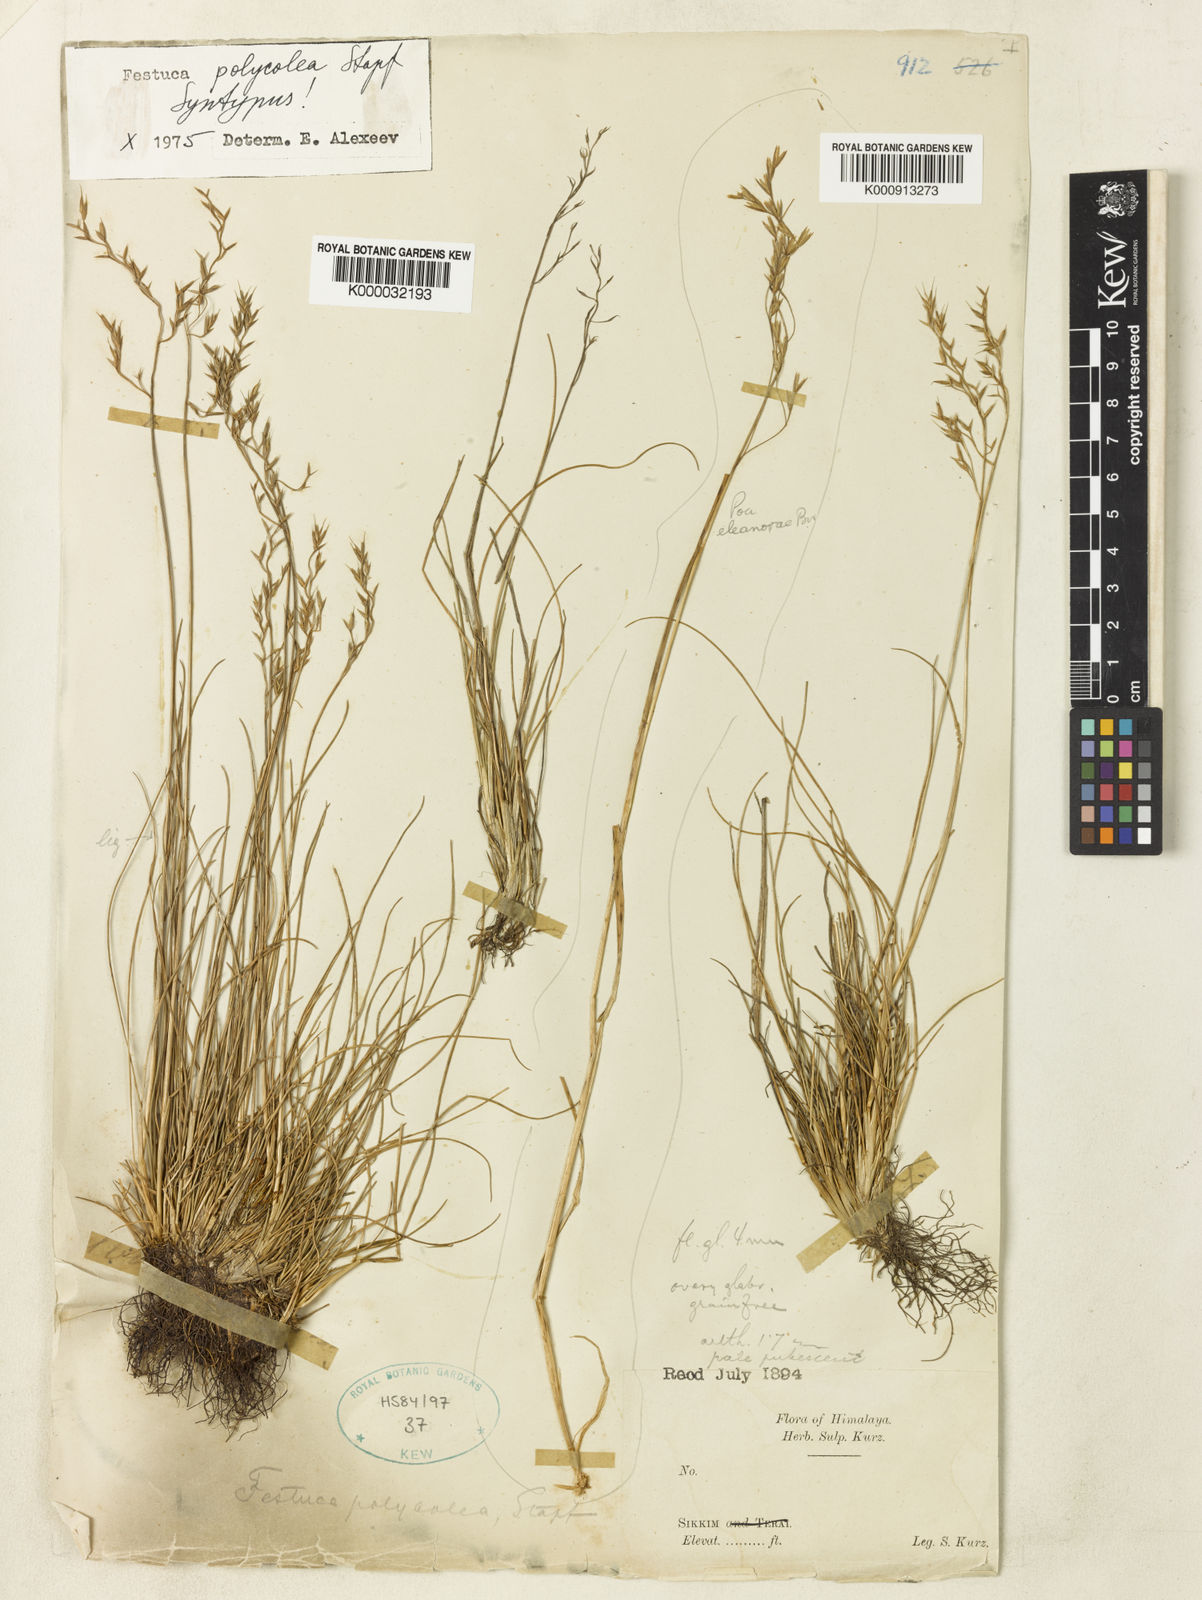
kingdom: Plantae
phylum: Tracheophyta
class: Liliopsida
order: Poales
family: Poaceae
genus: Festuca
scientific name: Festuca polycolea
